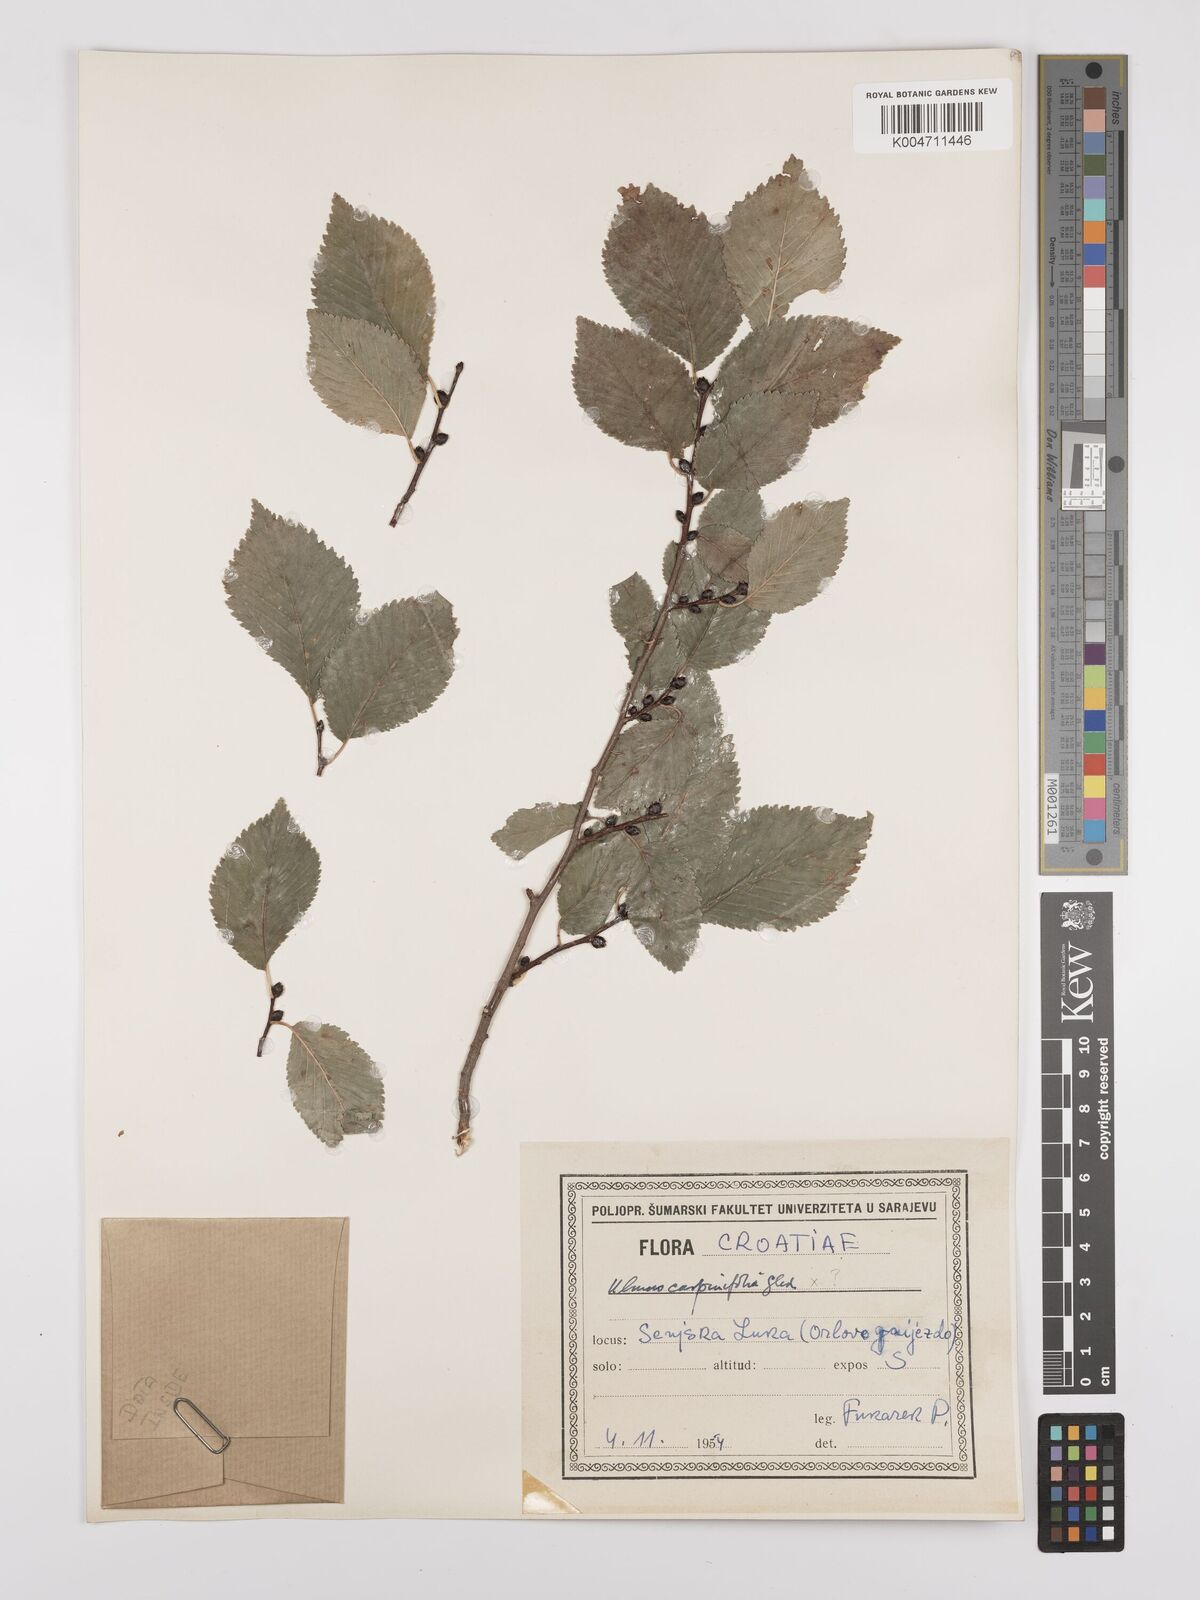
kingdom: Plantae
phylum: Tracheophyta
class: Magnoliopsida
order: Rosales
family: Ulmaceae
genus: Ulmus
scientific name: Ulmus minor
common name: Small-leaved elm
